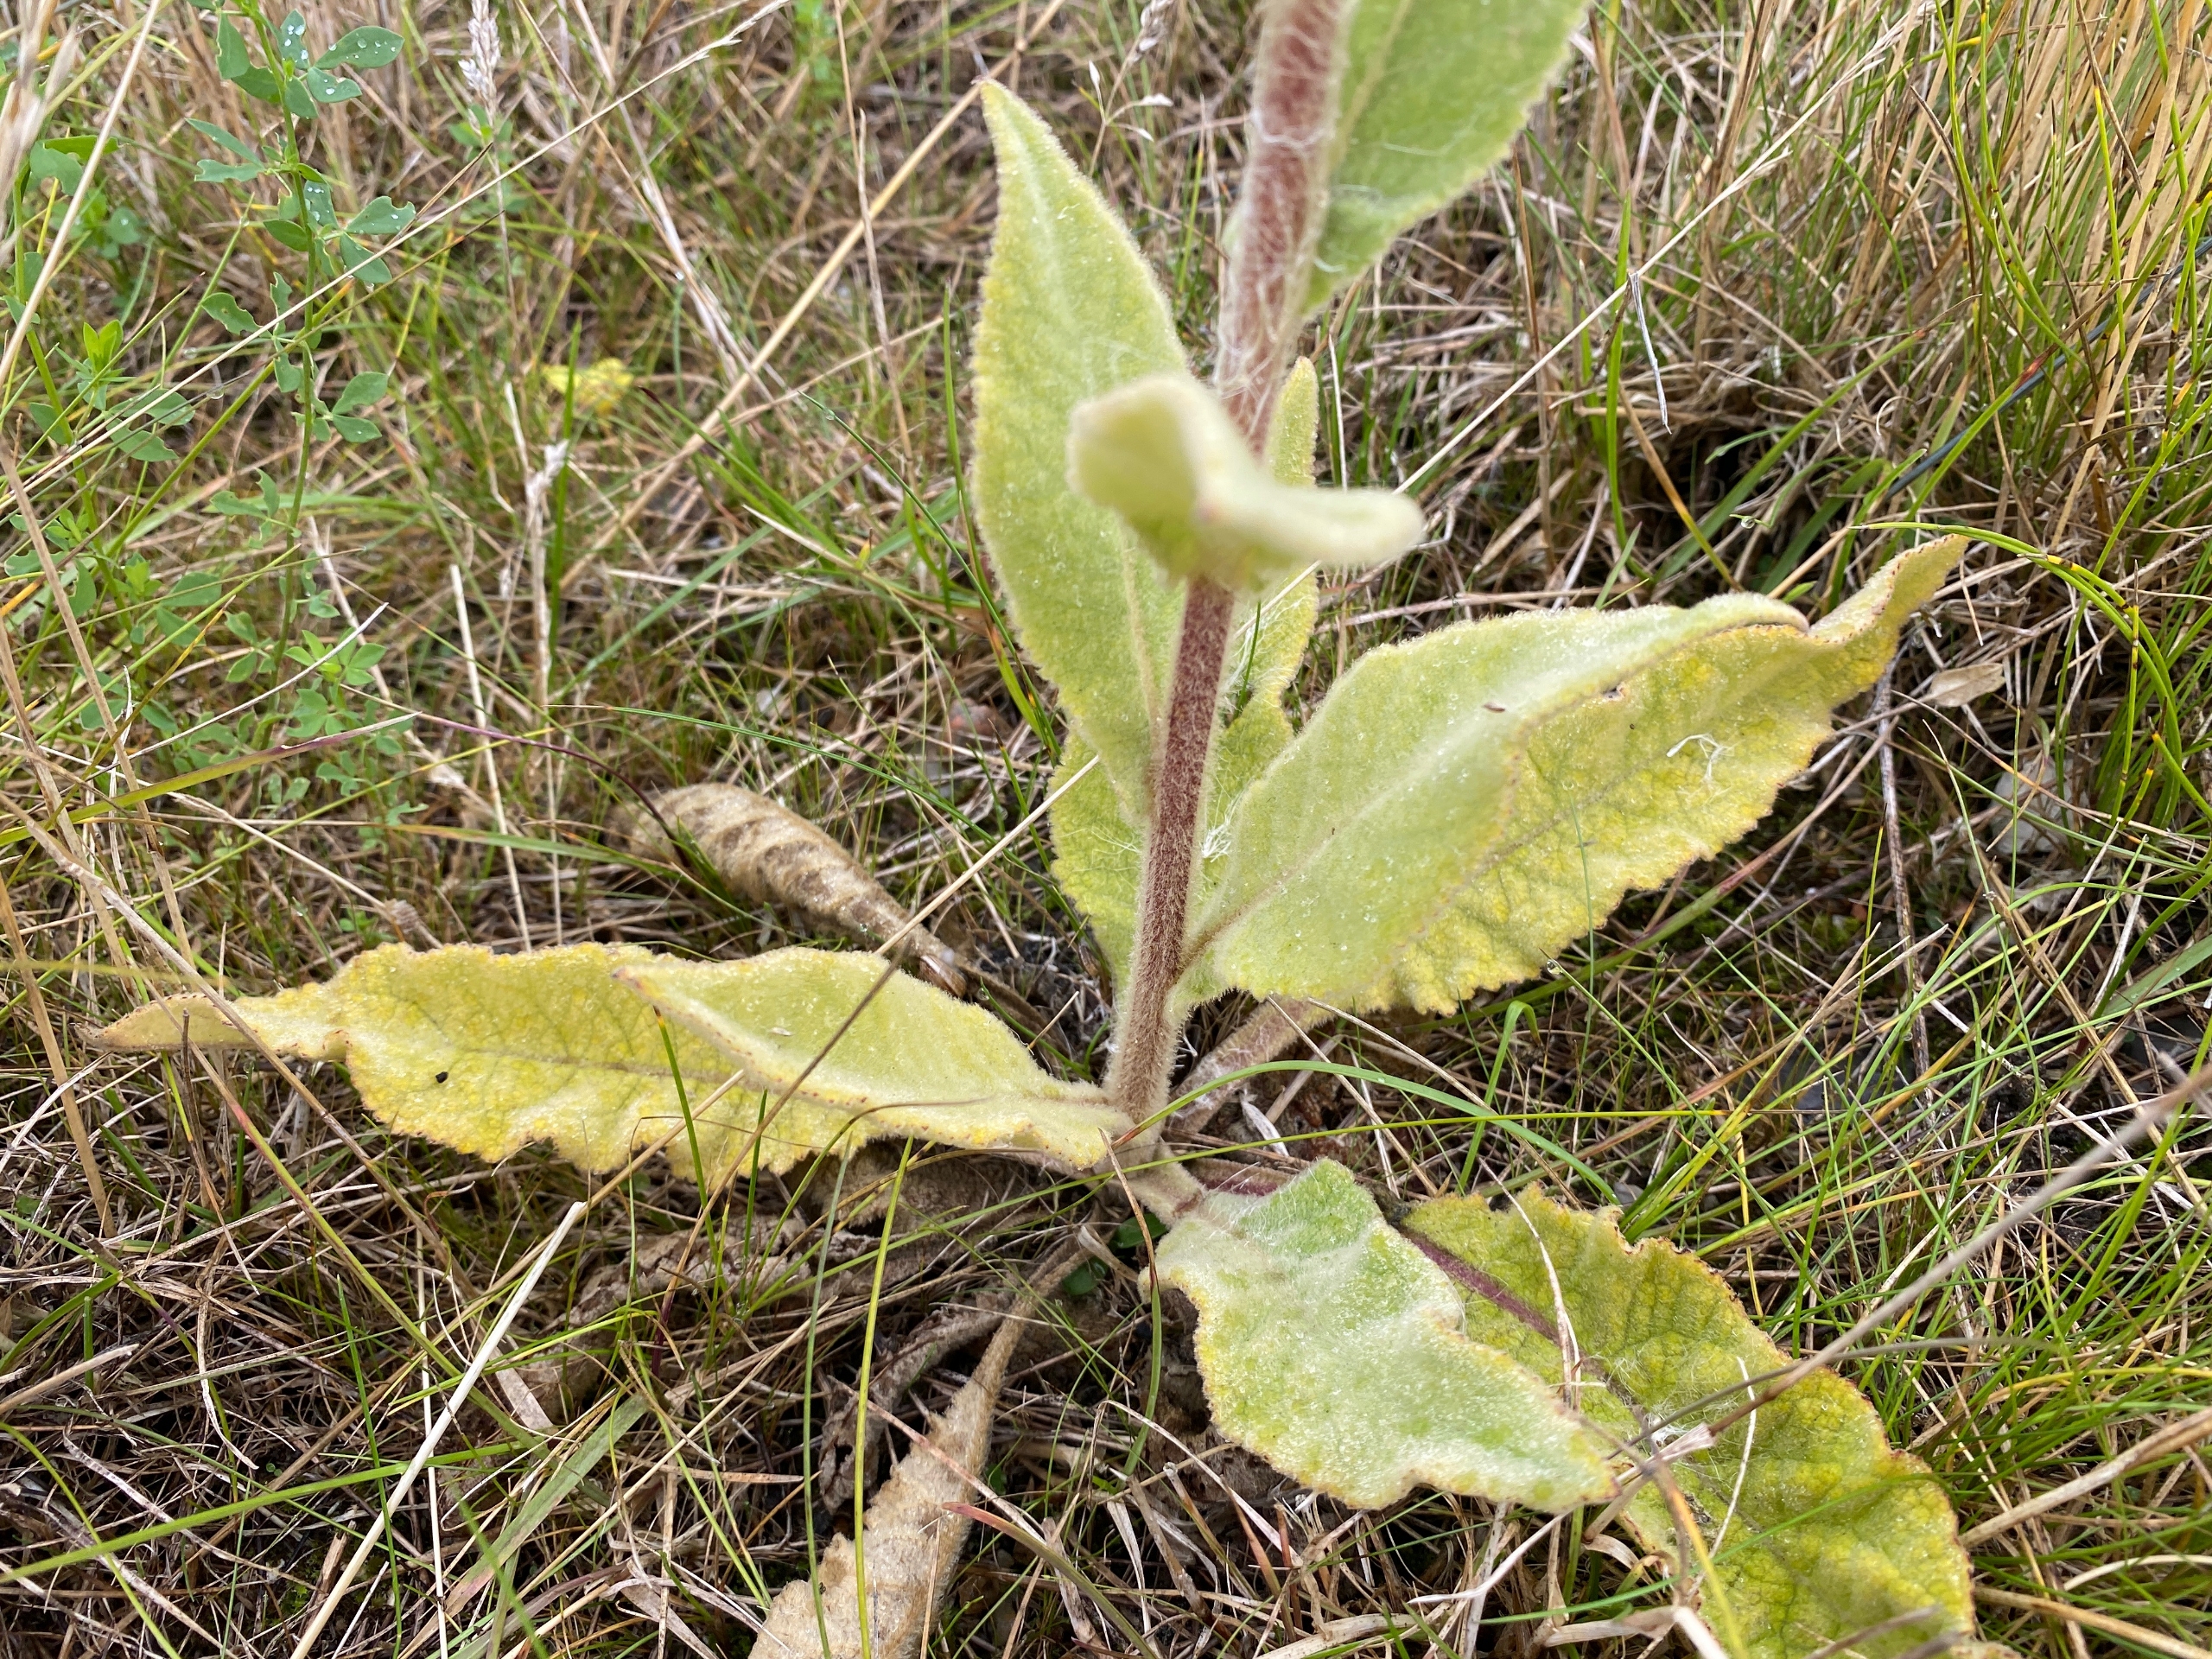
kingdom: Plantae
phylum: Tracheophyta
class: Magnoliopsida
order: Lamiales
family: Scrophulariaceae
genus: Verbascum
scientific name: Verbascum
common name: Mørk kongelys × filtbladet kongelys
